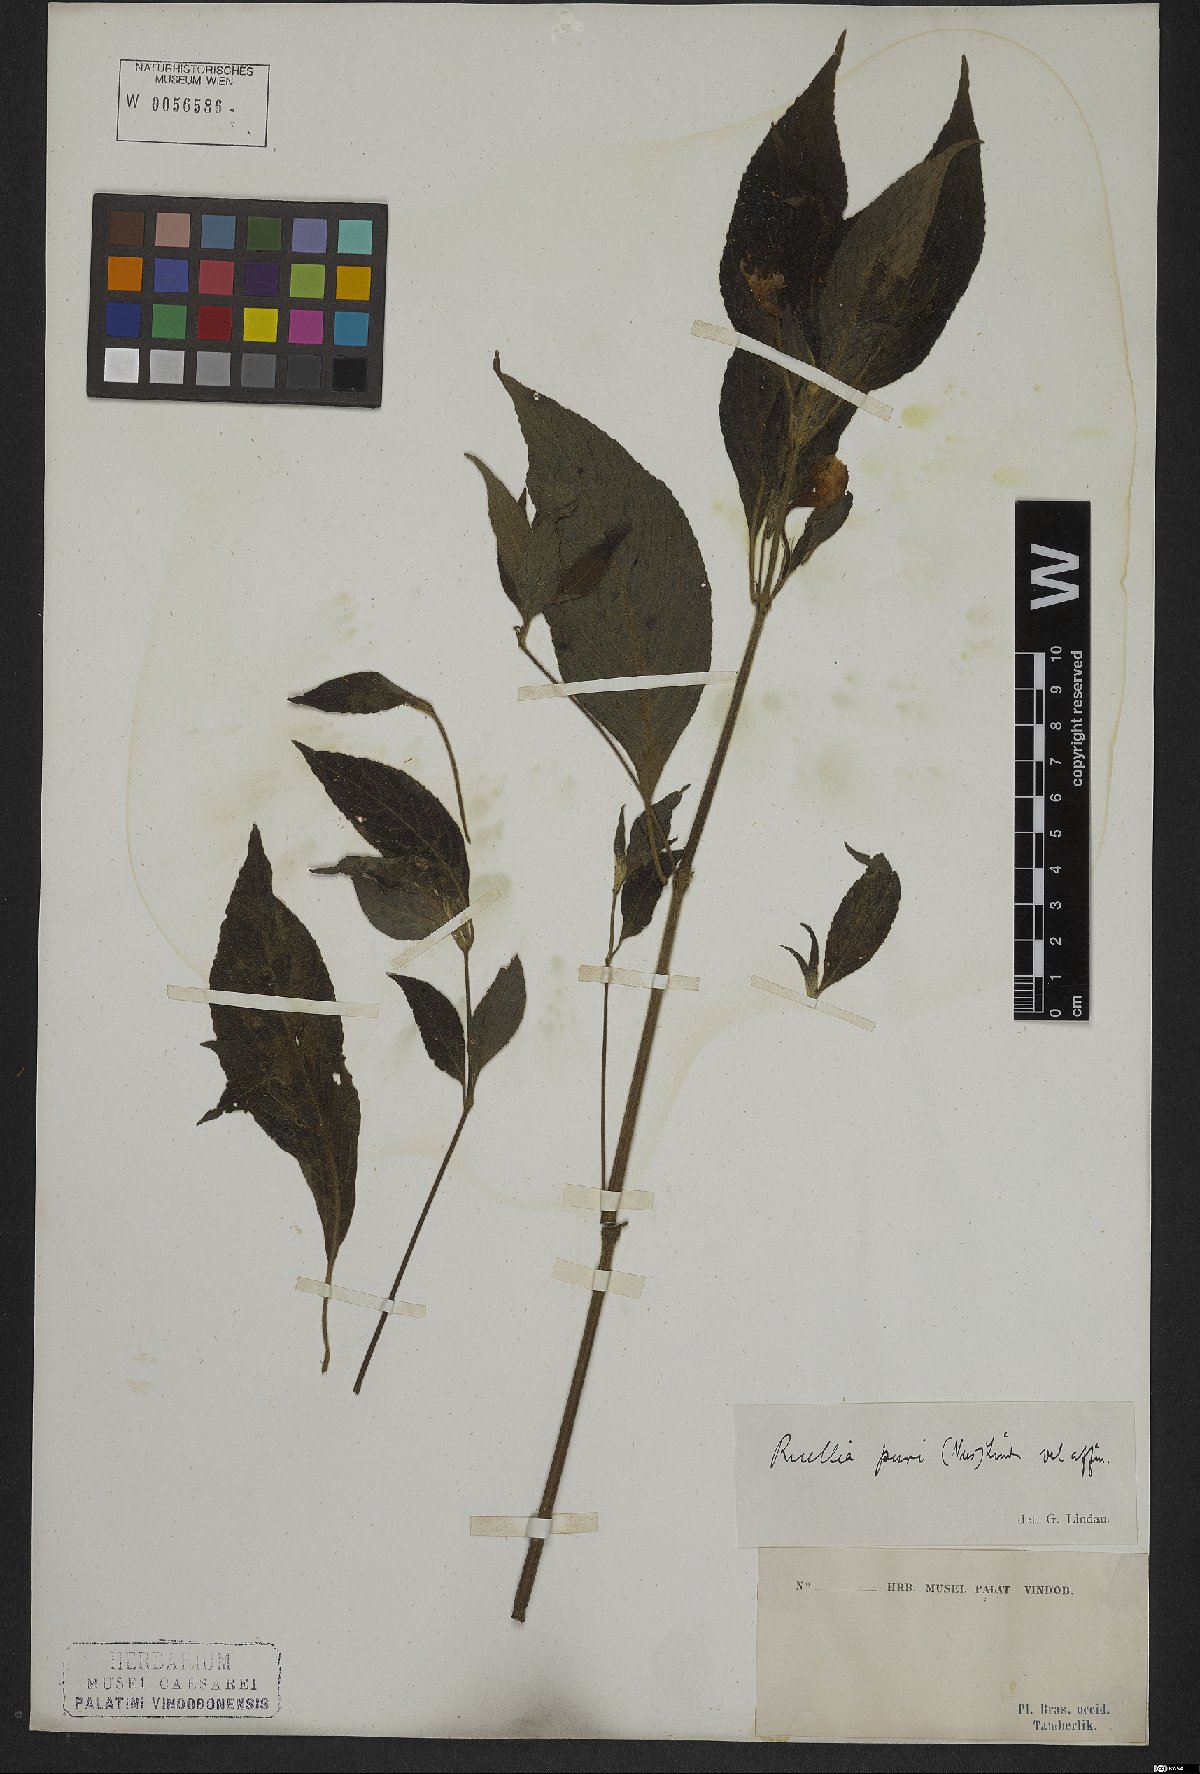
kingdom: Plantae
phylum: Tracheophyta
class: Magnoliopsida
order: Lamiales
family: Acanthaceae
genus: Ruellia
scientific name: Ruellia purii
